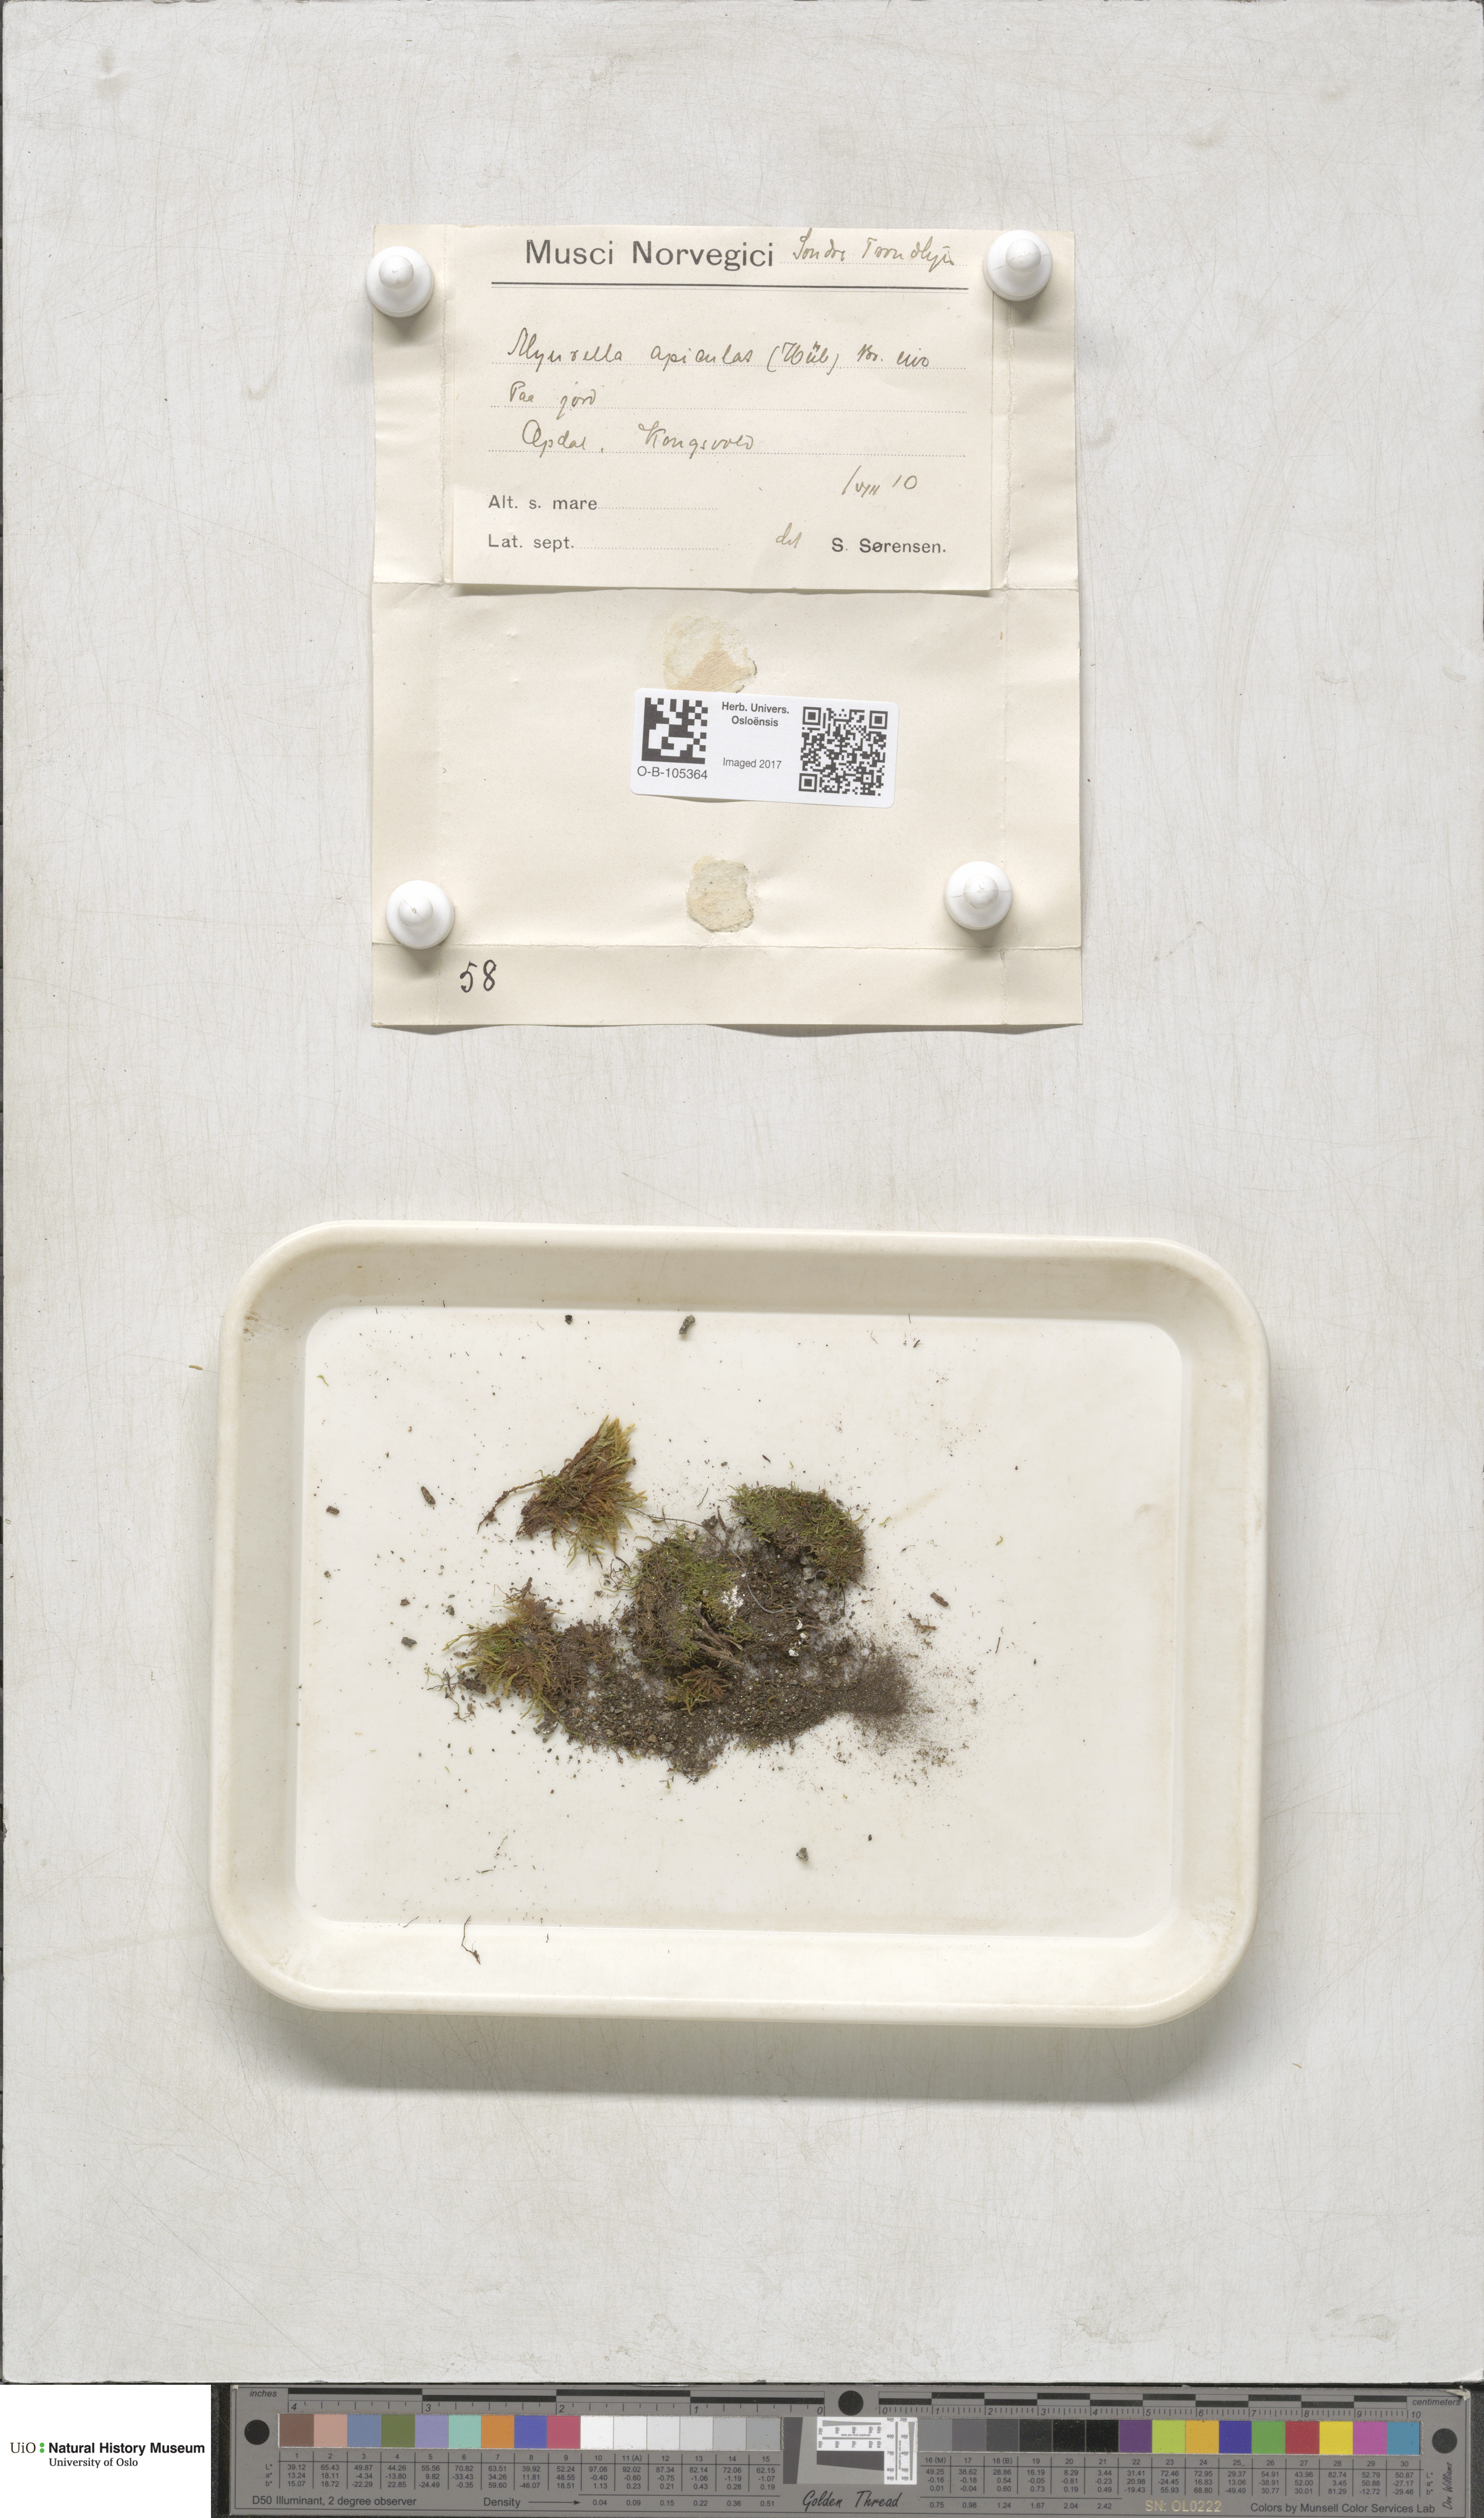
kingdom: Plantae
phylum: Bryophyta
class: Bryopsida
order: Hypnales
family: Plagiotheciaceae
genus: Myurella
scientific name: Myurella tenerrima
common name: Dwarf mousetail moss
